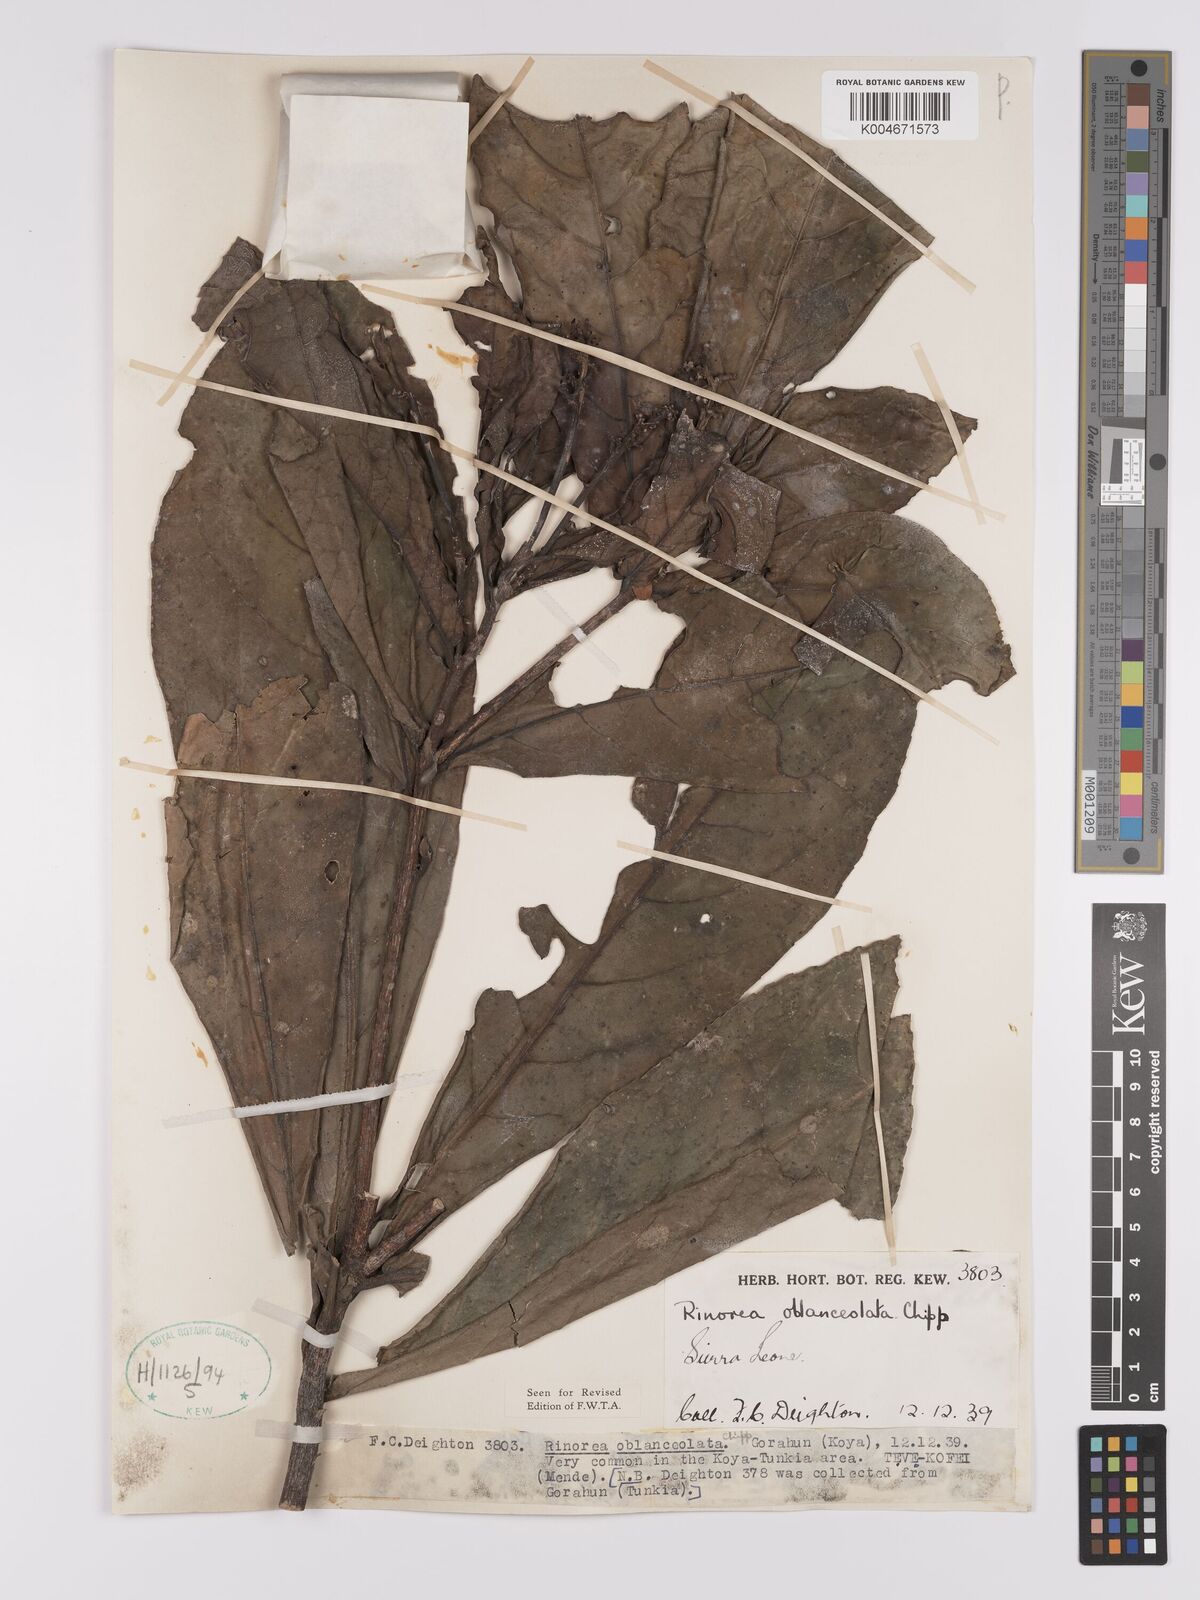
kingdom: Plantae
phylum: Tracheophyta
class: Magnoliopsida
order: Malpighiales
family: Violaceae
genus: Rinorea
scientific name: Rinorea oblanceolata
